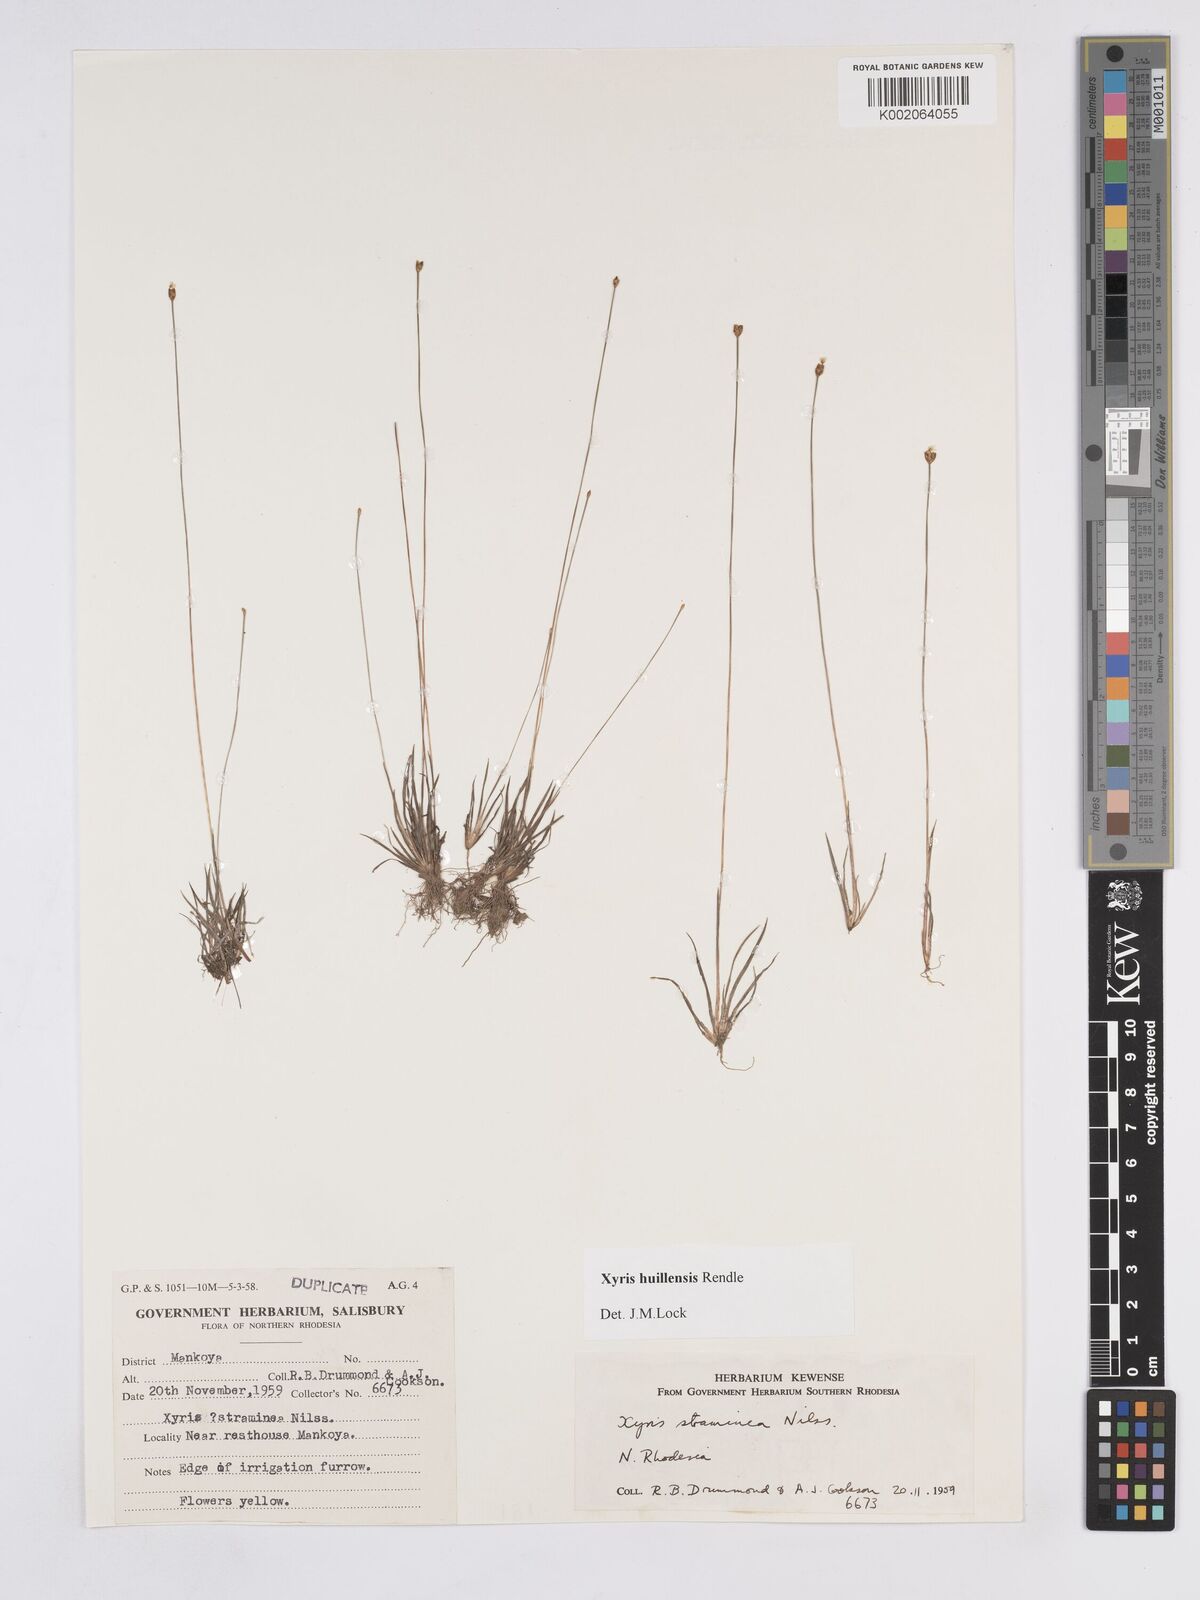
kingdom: Plantae
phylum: Tracheophyta
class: Liliopsida
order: Poales
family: Xyridaceae
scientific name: Xyridaceae
